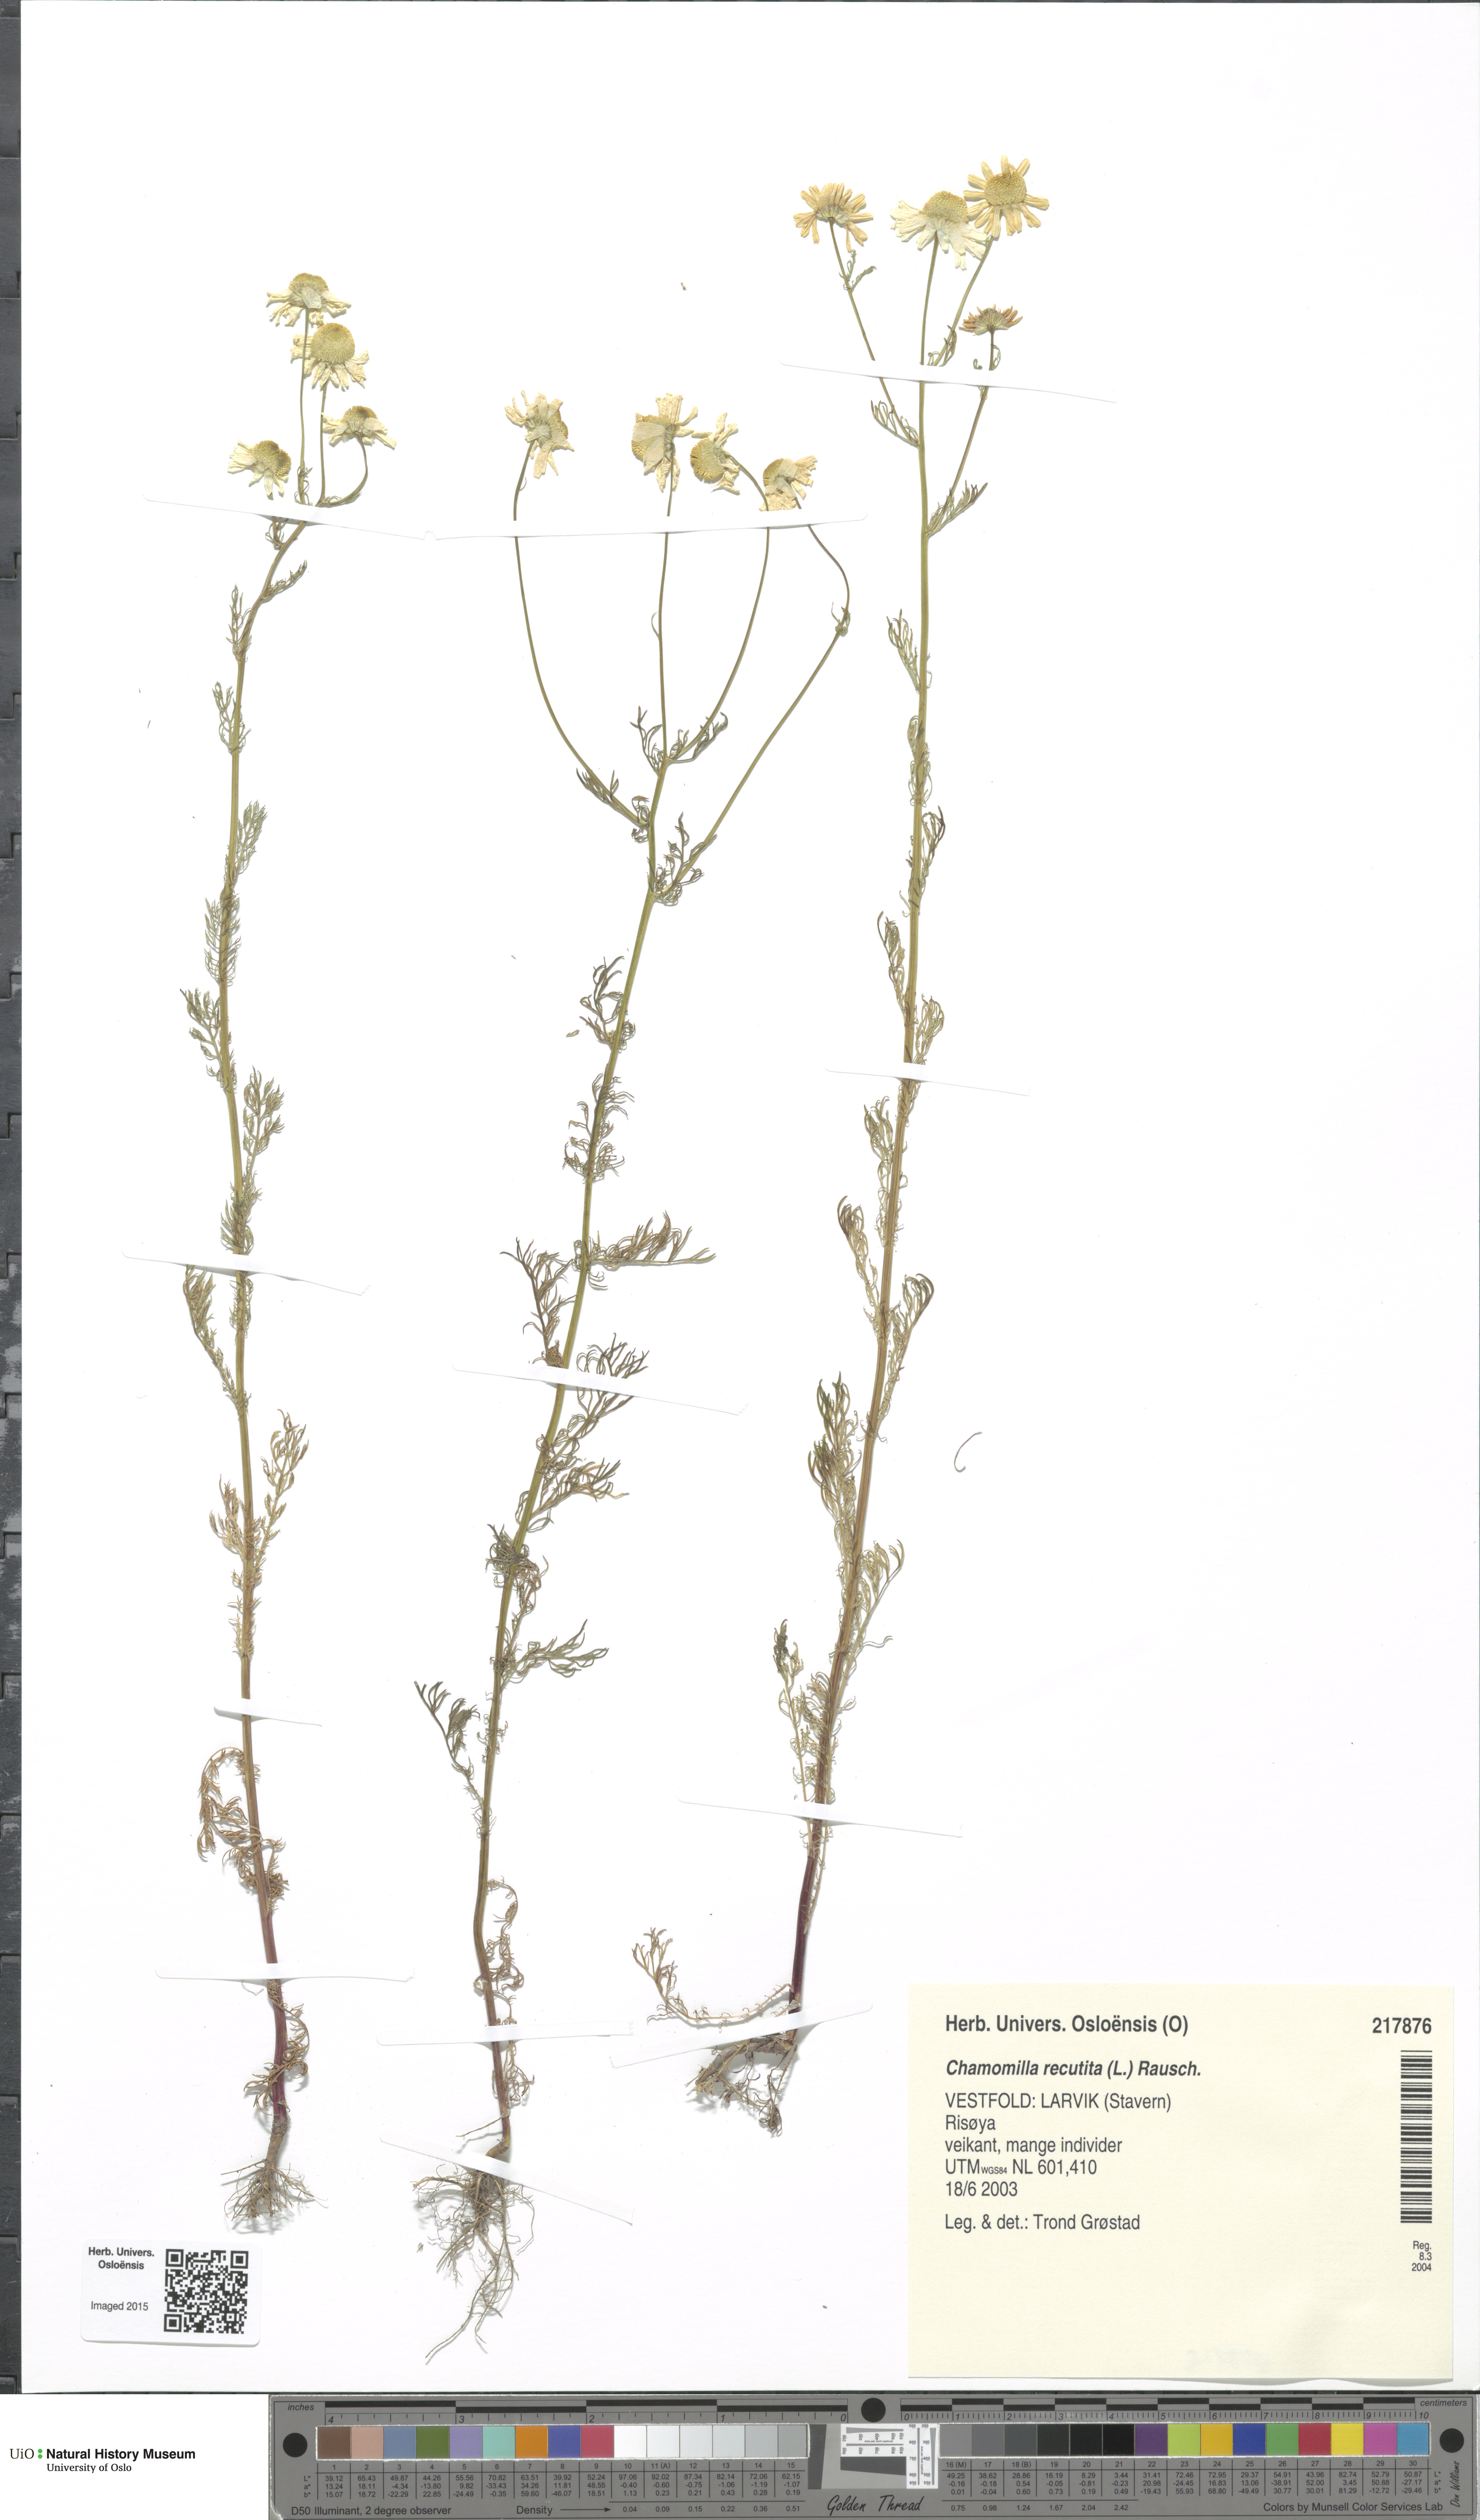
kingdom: Plantae
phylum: Tracheophyta
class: Magnoliopsida
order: Asterales
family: Asteraceae
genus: Matricaria
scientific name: Matricaria chamomilla
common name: Scented mayweed
